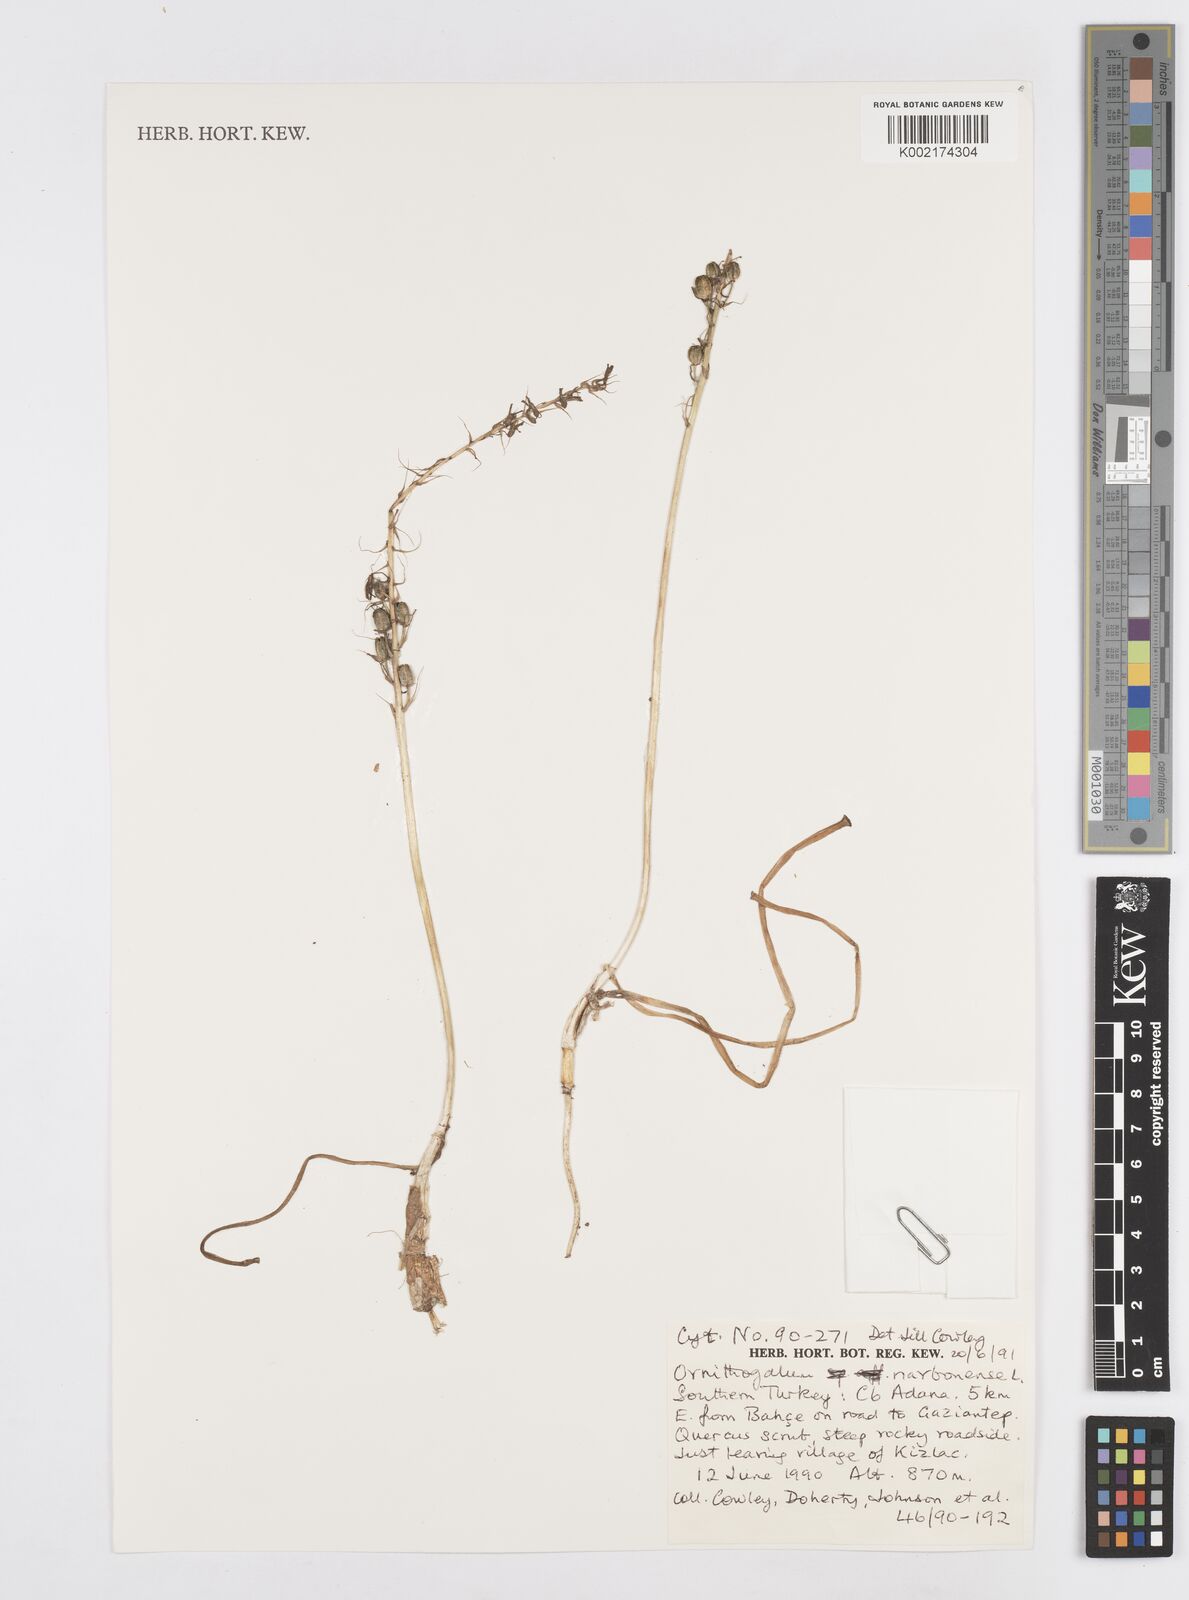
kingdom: Plantae
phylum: Tracheophyta
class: Liliopsida
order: Asparagales
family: Asparagaceae
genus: Ornithogalum
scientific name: Ornithogalum narbonense
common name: Bath-asparagus
